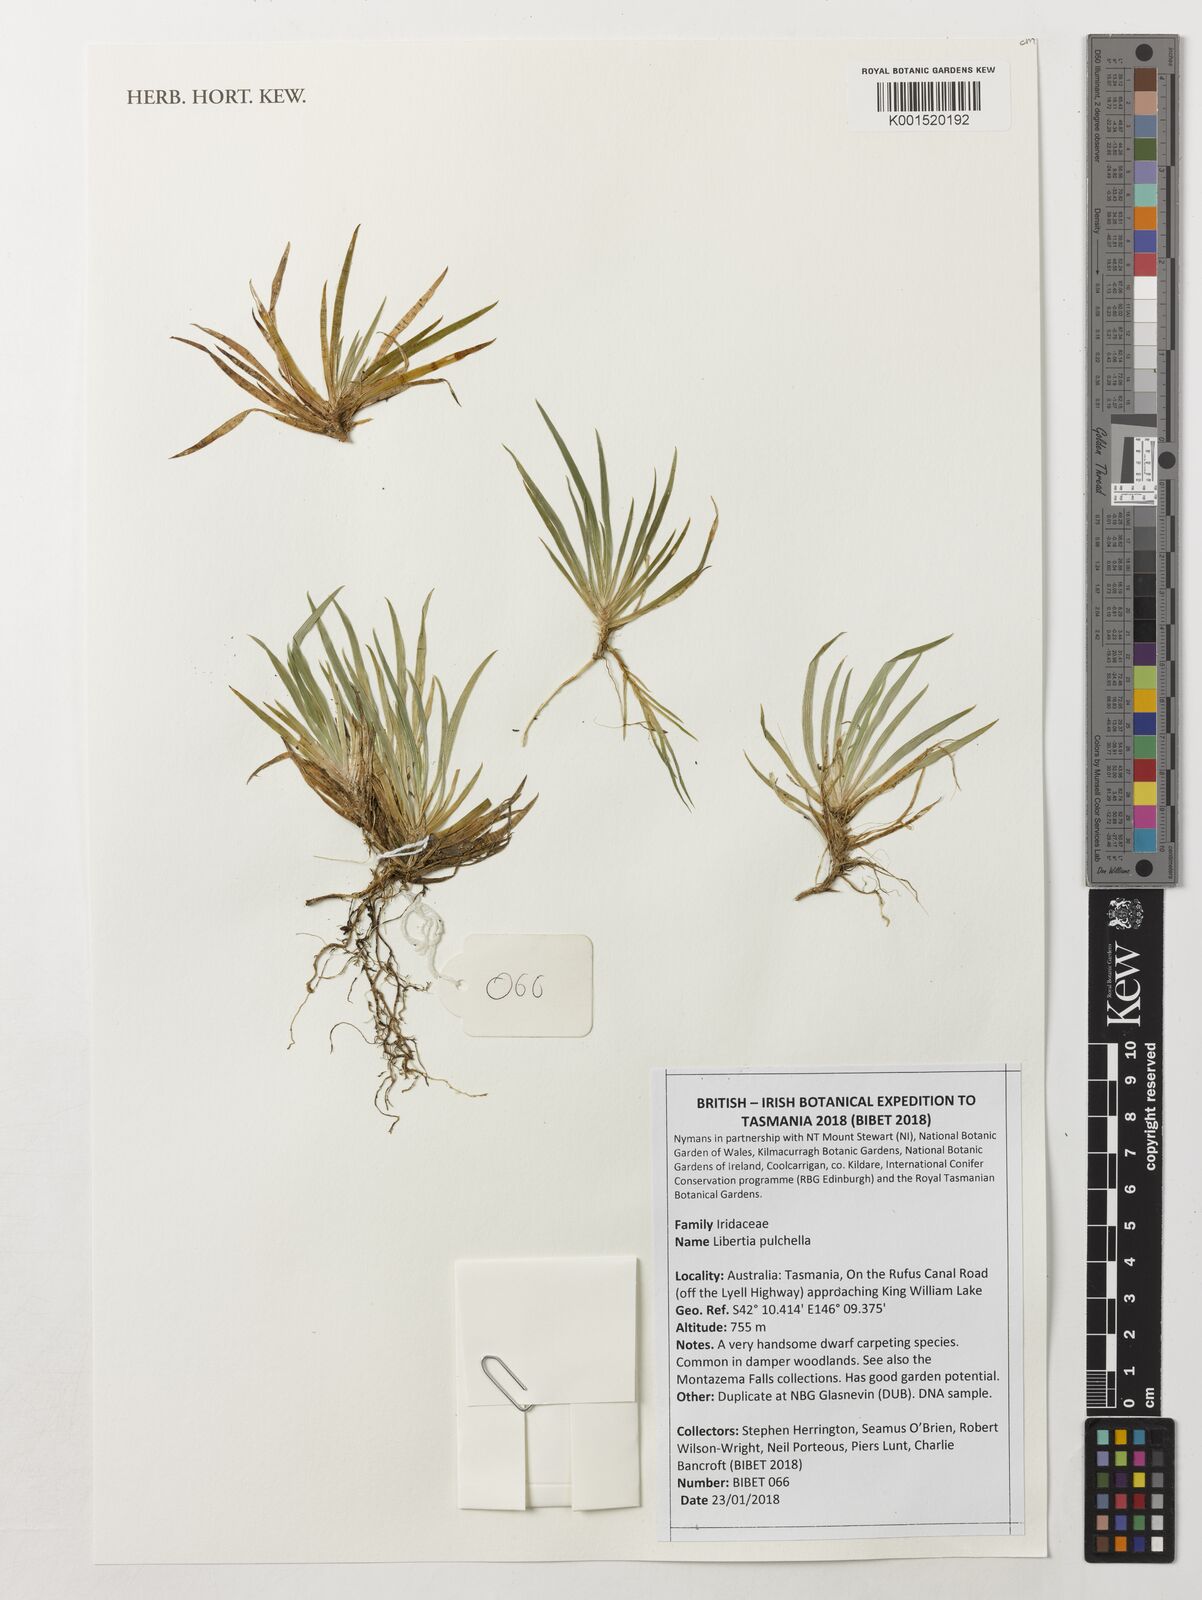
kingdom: Plantae
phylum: Tracheophyta
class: Liliopsida
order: Asparagales
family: Iridaceae
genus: Libertia
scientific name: Libertia pulchella
